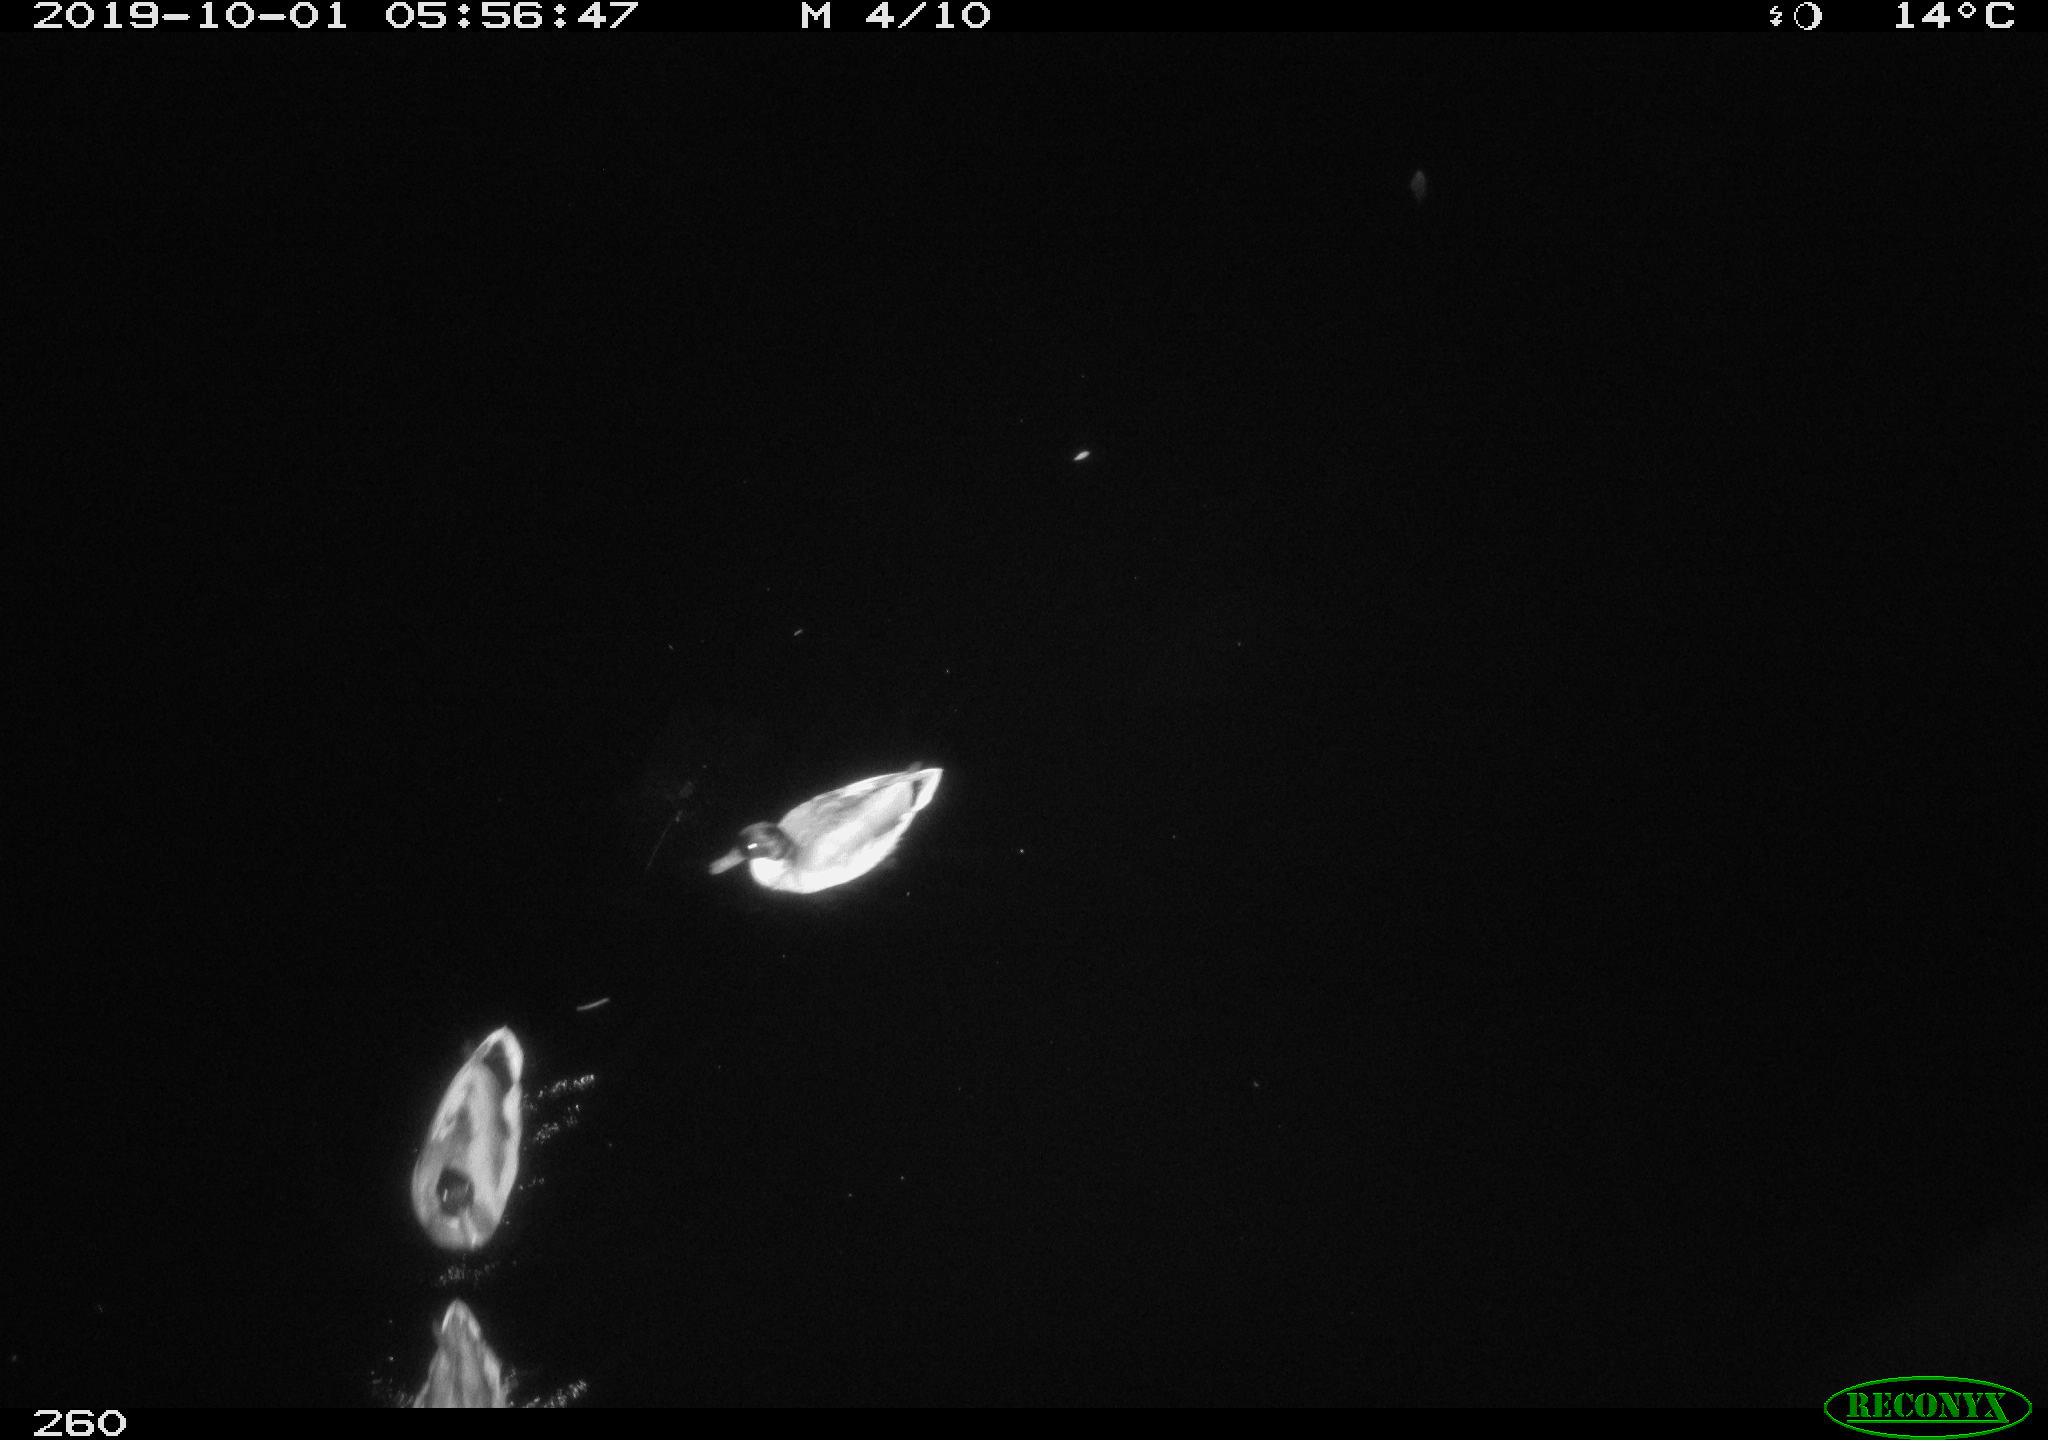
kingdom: Animalia
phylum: Chordata
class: Aves
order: Anseriformes
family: Anatidae
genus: Anas
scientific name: Anas platyrhynchos
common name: Mallard
